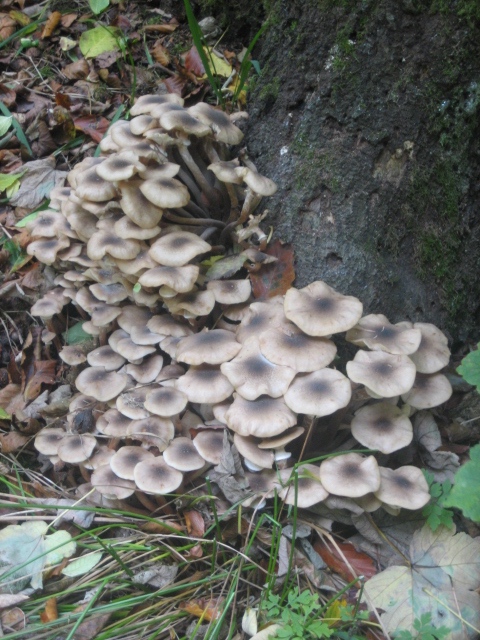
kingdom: Fungi
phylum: Basidiomycota
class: Agaricomycetes
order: Agaricales
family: Physalacriaceae
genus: Armillaria
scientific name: Armillaria mellea
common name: ægte honningsvamp
